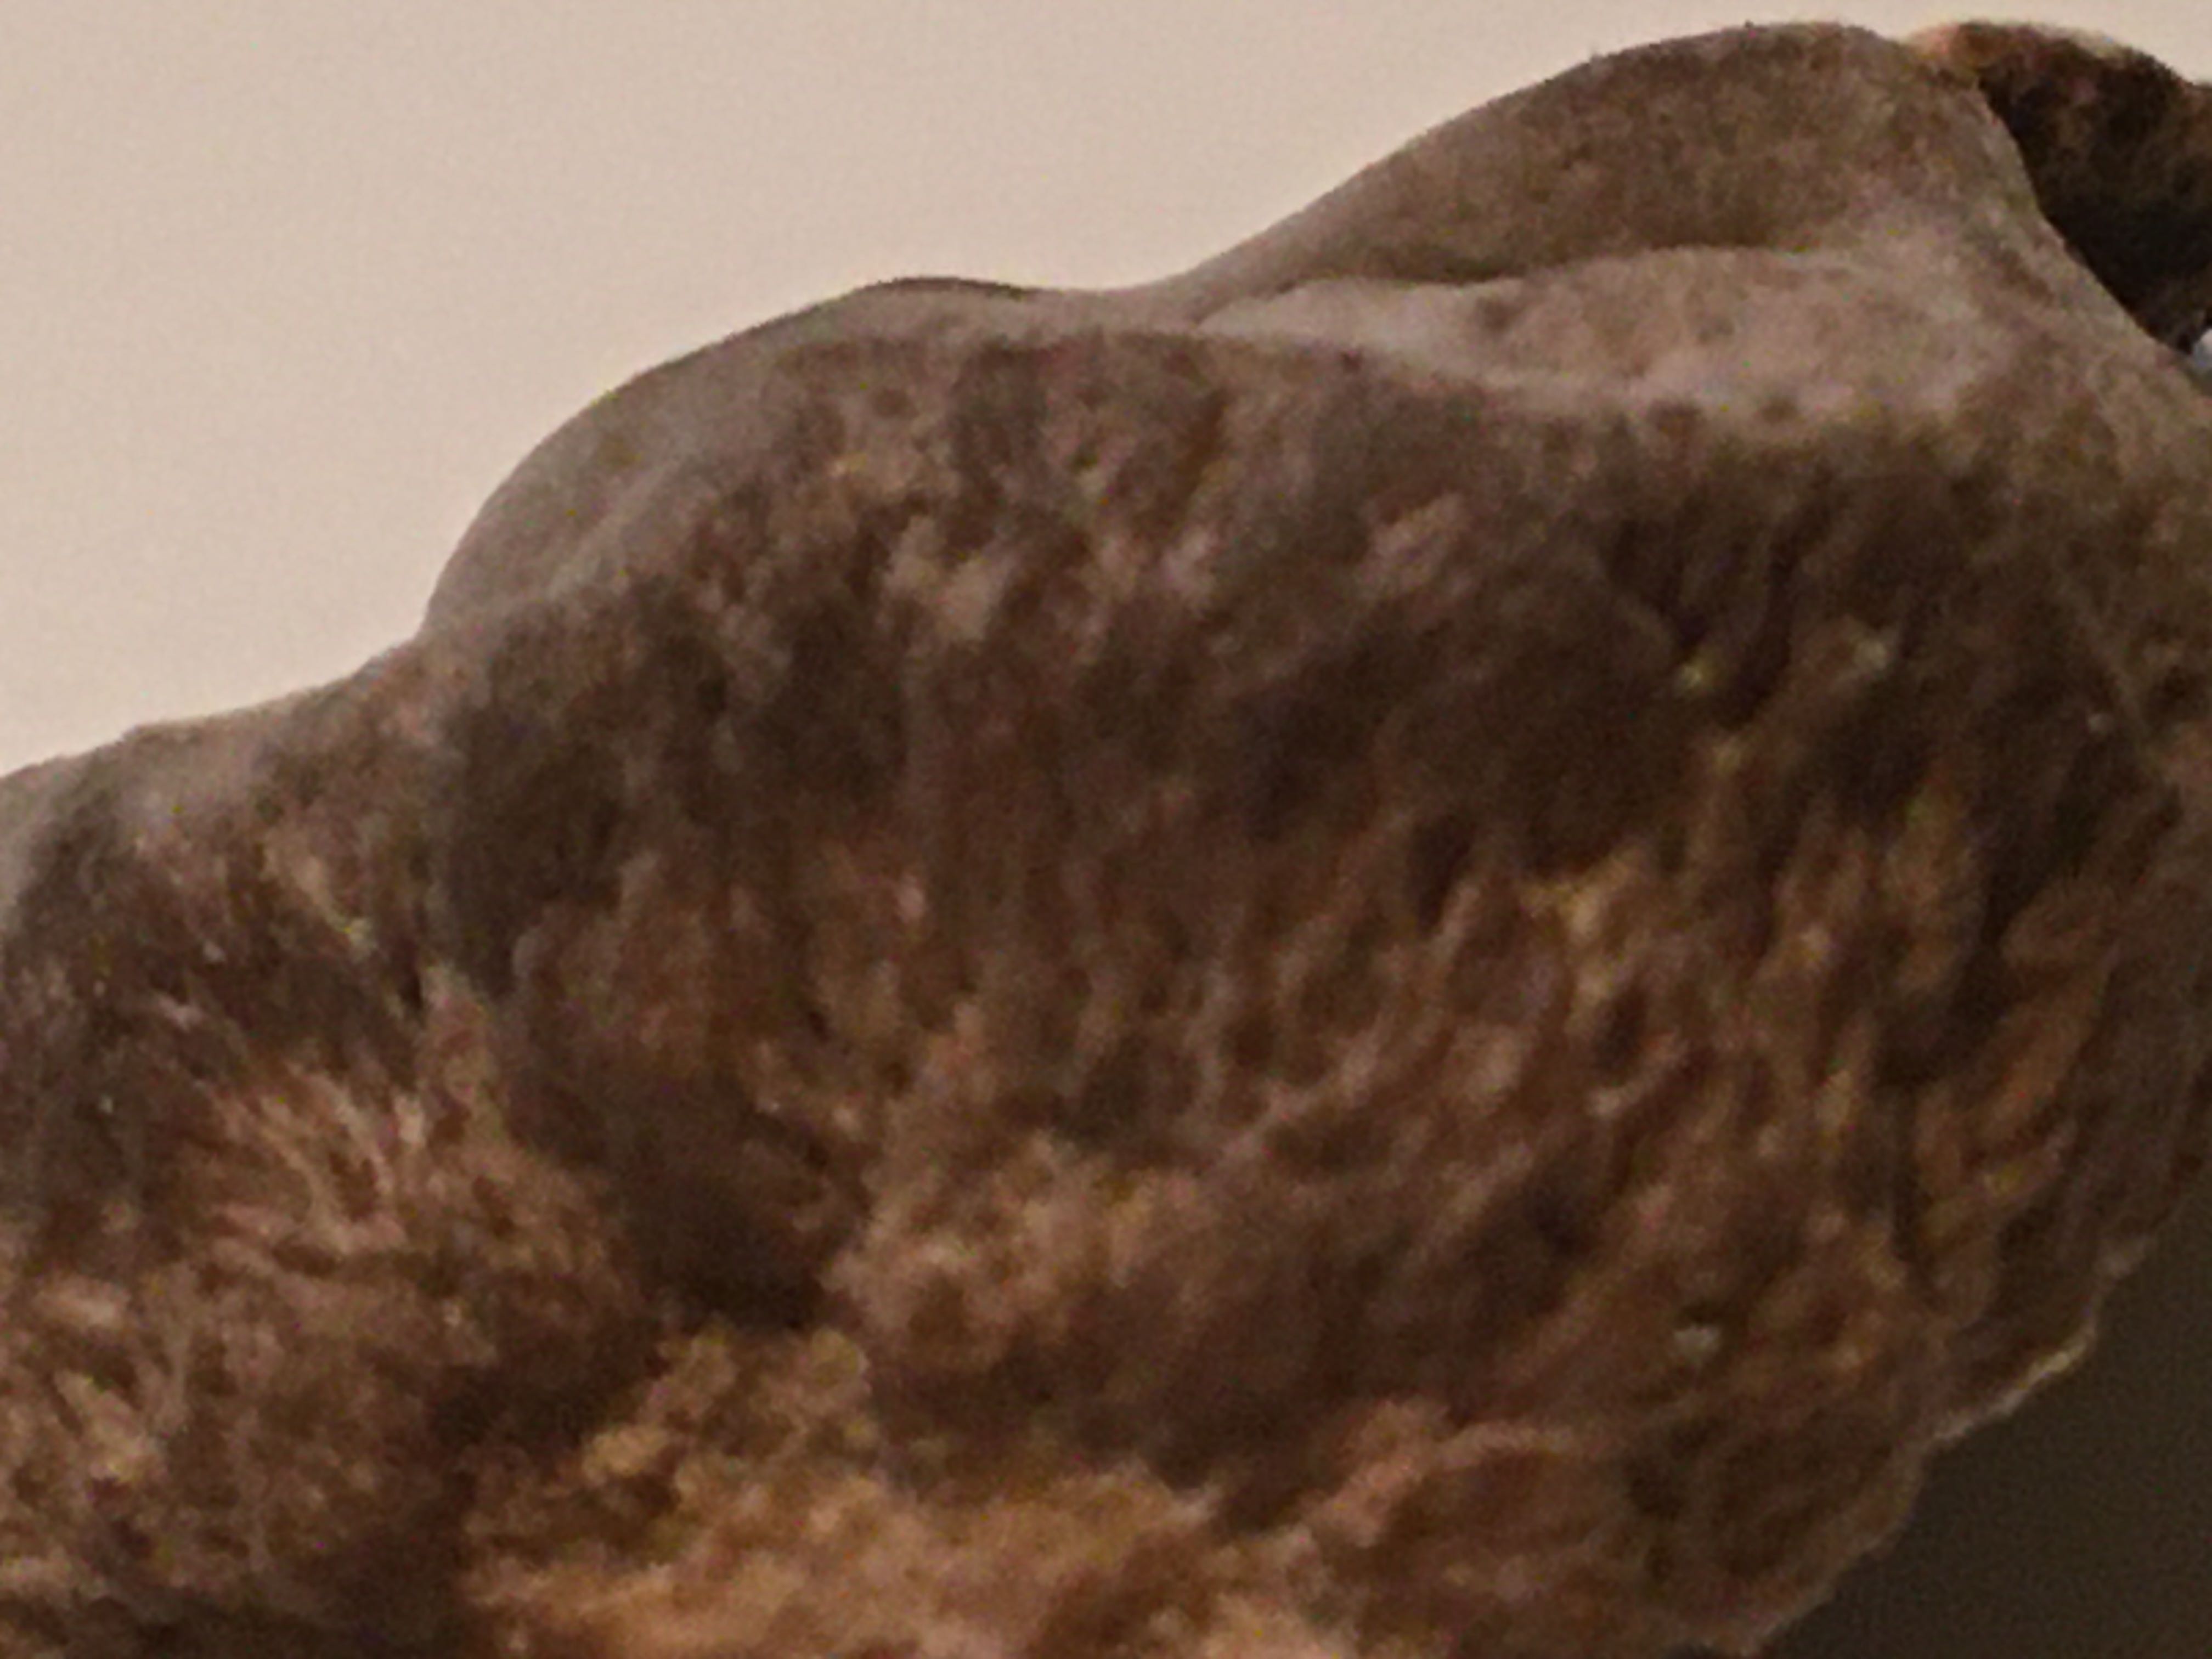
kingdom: Fungi
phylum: Basidiomycota
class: Agaricomycetes
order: Polyporales
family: Phanerochaetaceae
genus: Bjerkandera
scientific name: Bjerkandera adusta
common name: sveden sodporesvamp
